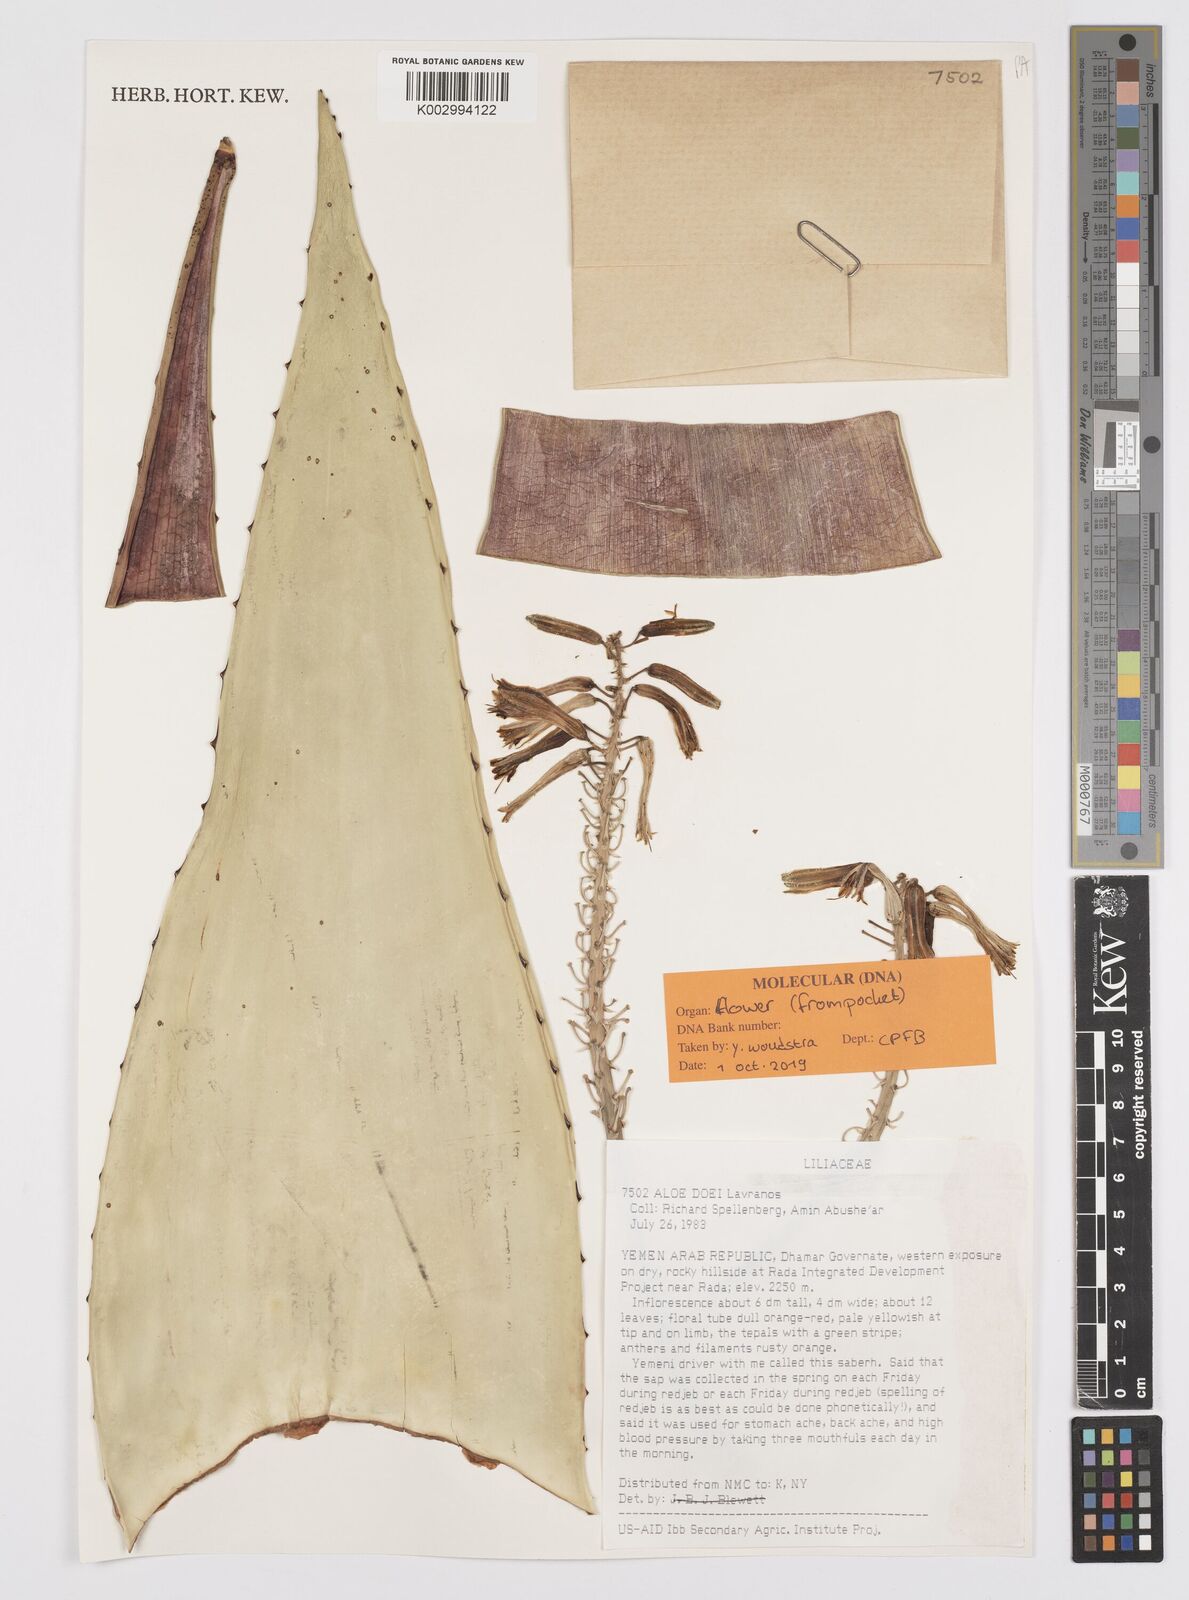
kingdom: Plantae
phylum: Tracheophyta
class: Liliopsida
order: Asparagales
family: Asphodelaceae
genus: Aloe
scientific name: Aloe lavranosii
